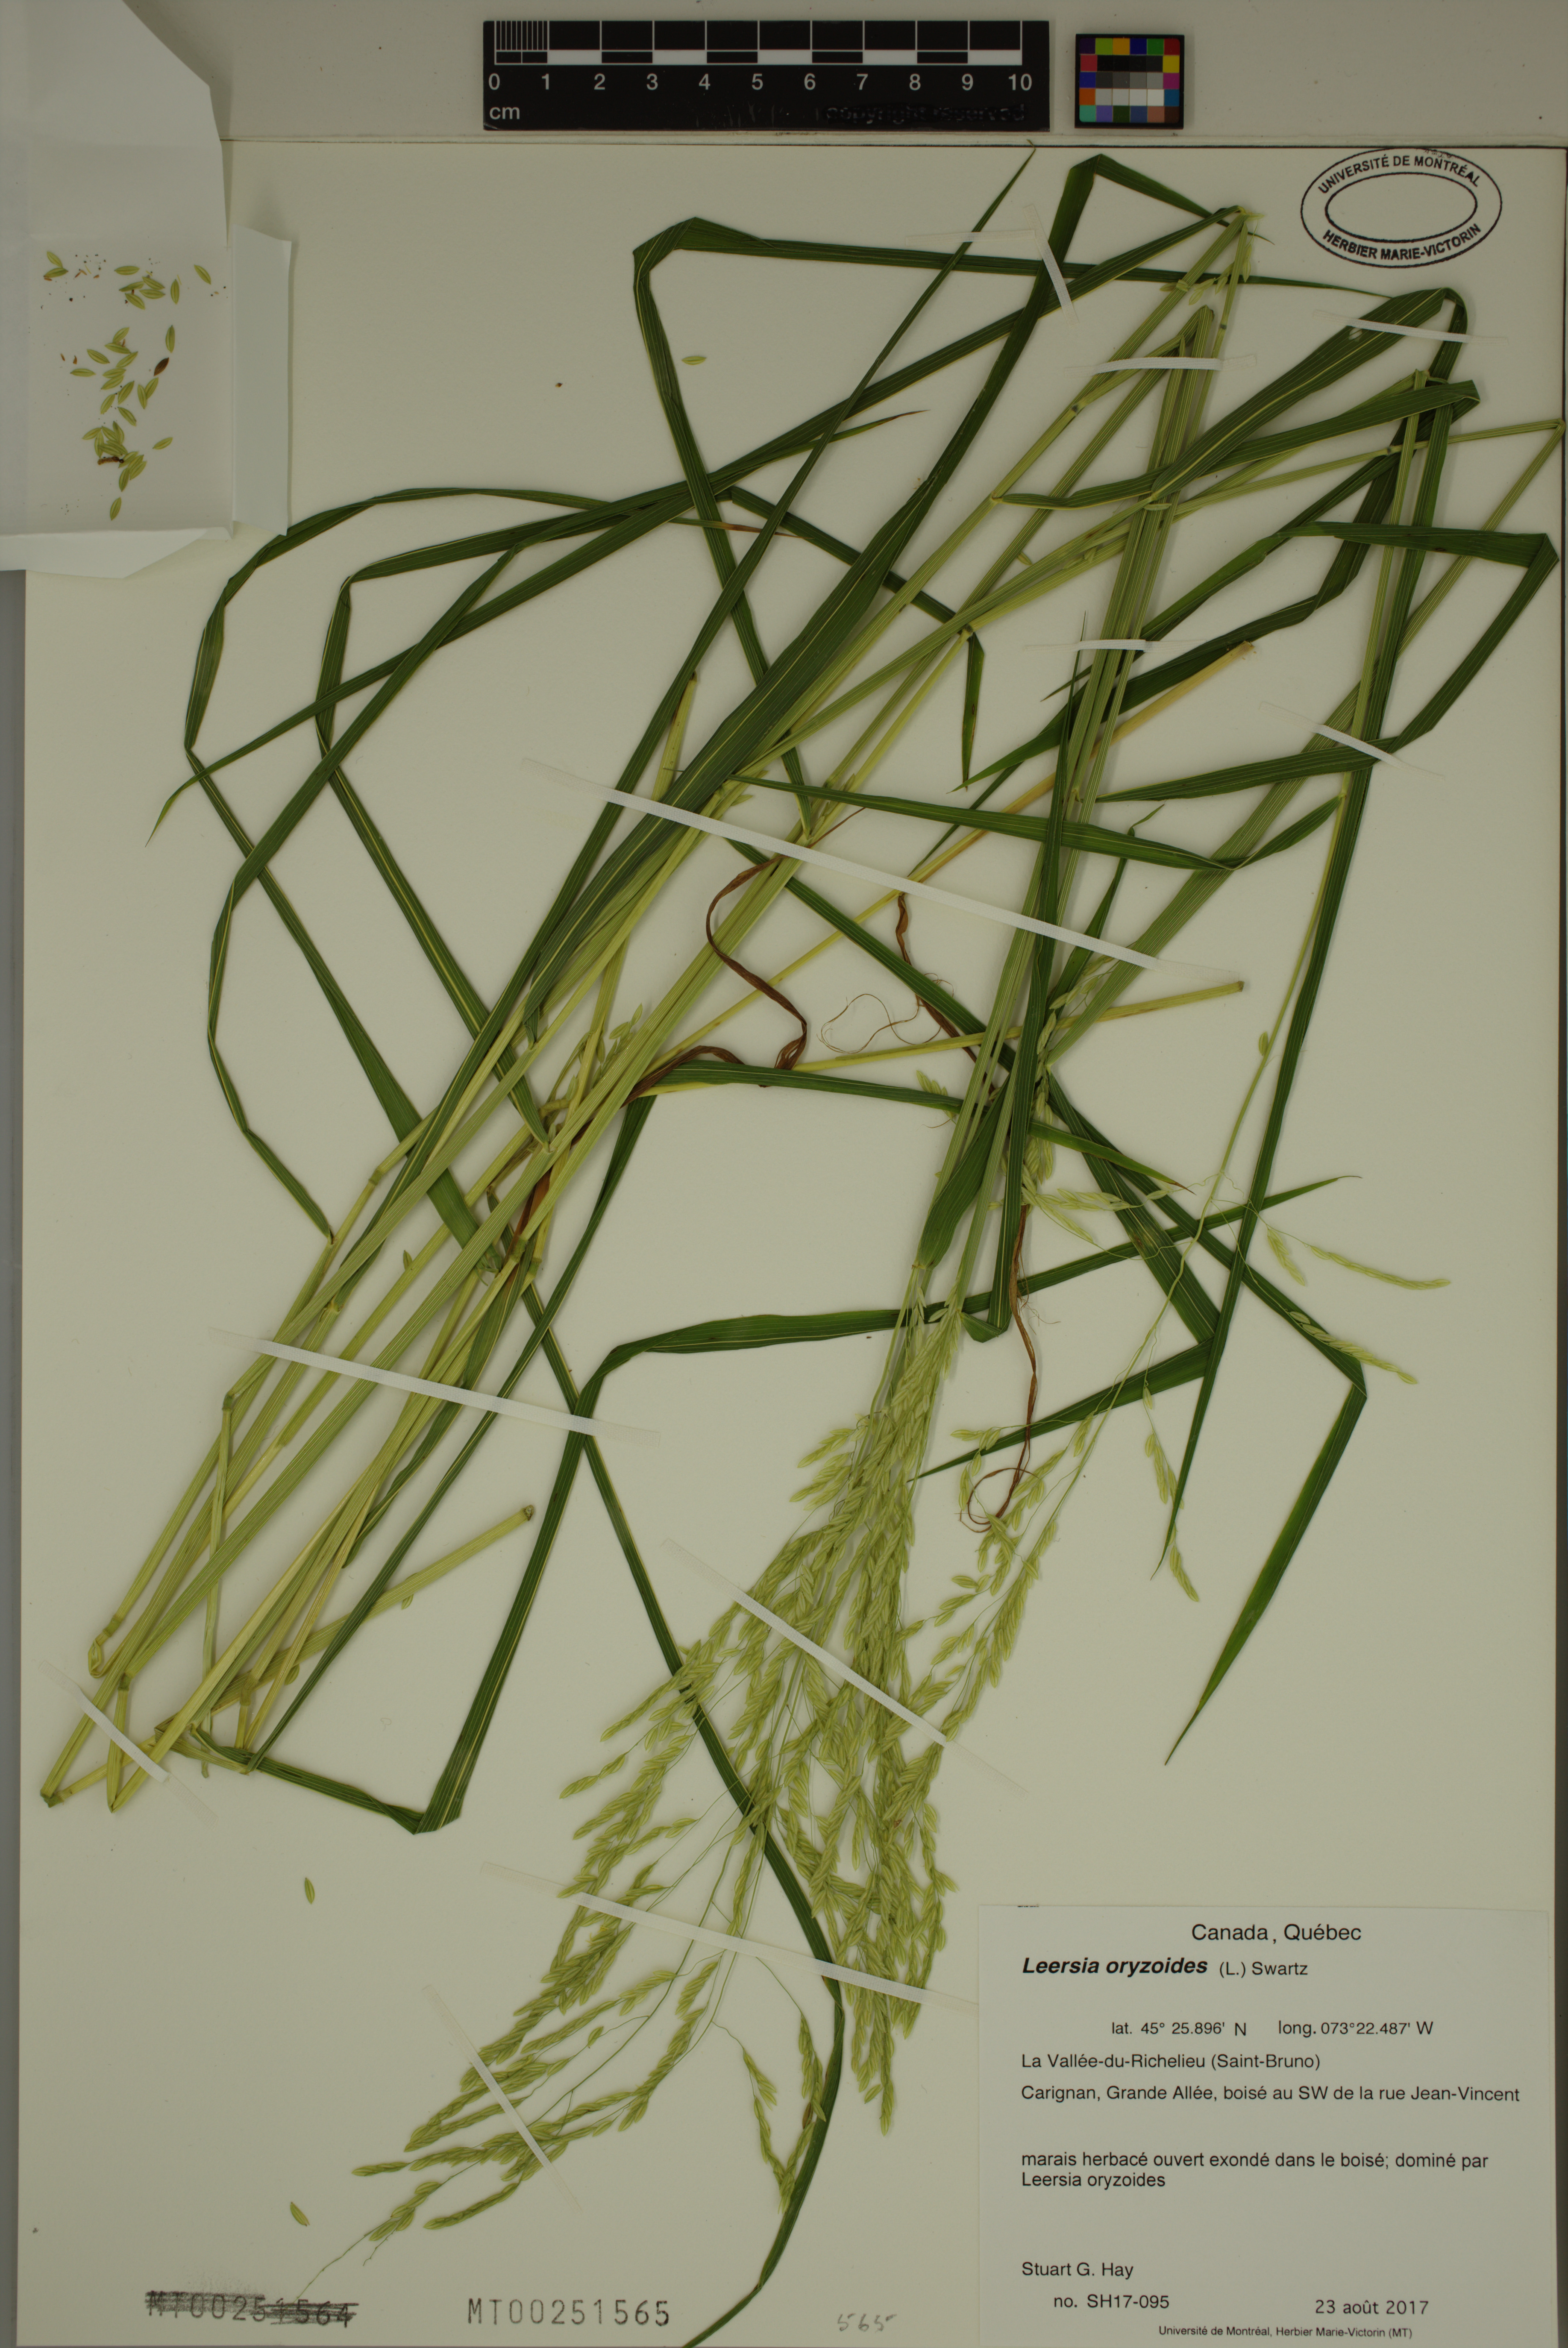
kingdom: Plantae
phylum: Tracheophyta
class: Liliopsida
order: Poales
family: Poaceae
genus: Leersia
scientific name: Leersia oryzoides
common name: Cut-grass
